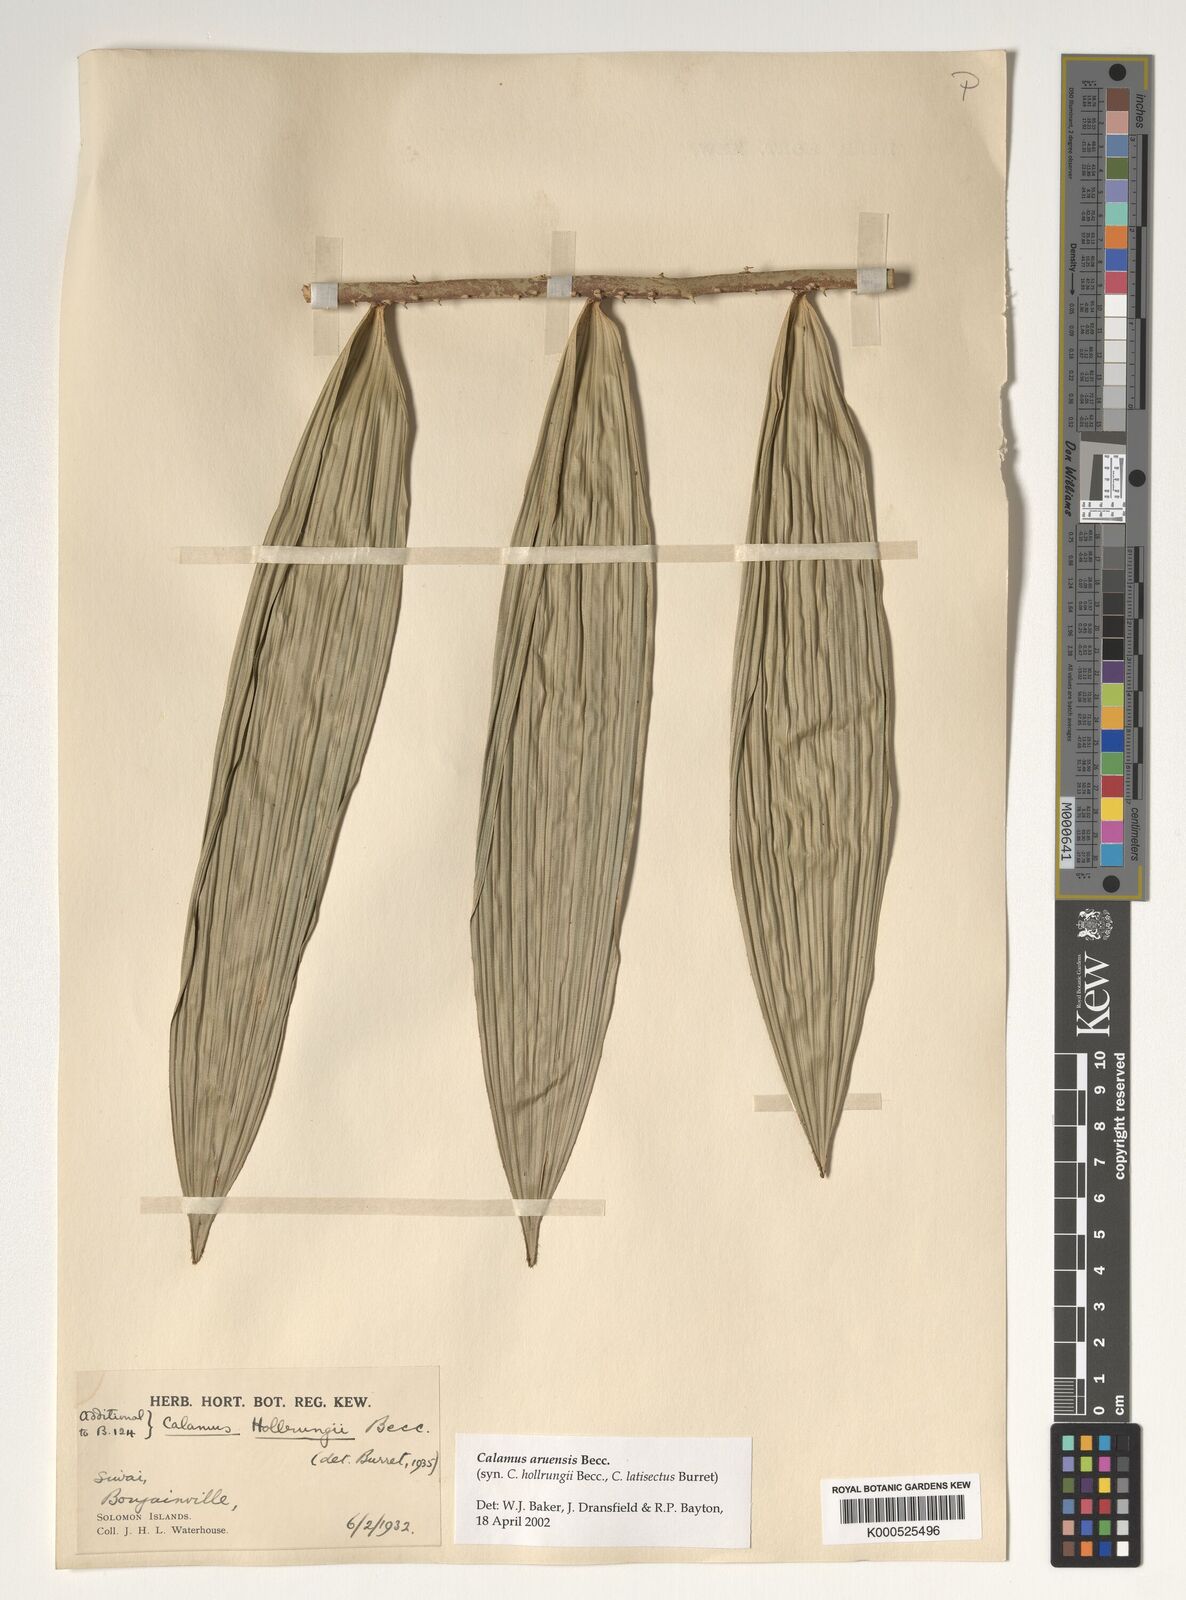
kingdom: Plantae
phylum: Tracheophyta
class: Liliopsida
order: Arecales
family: Arecaceae
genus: Calamus
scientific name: Calamus aruensis
